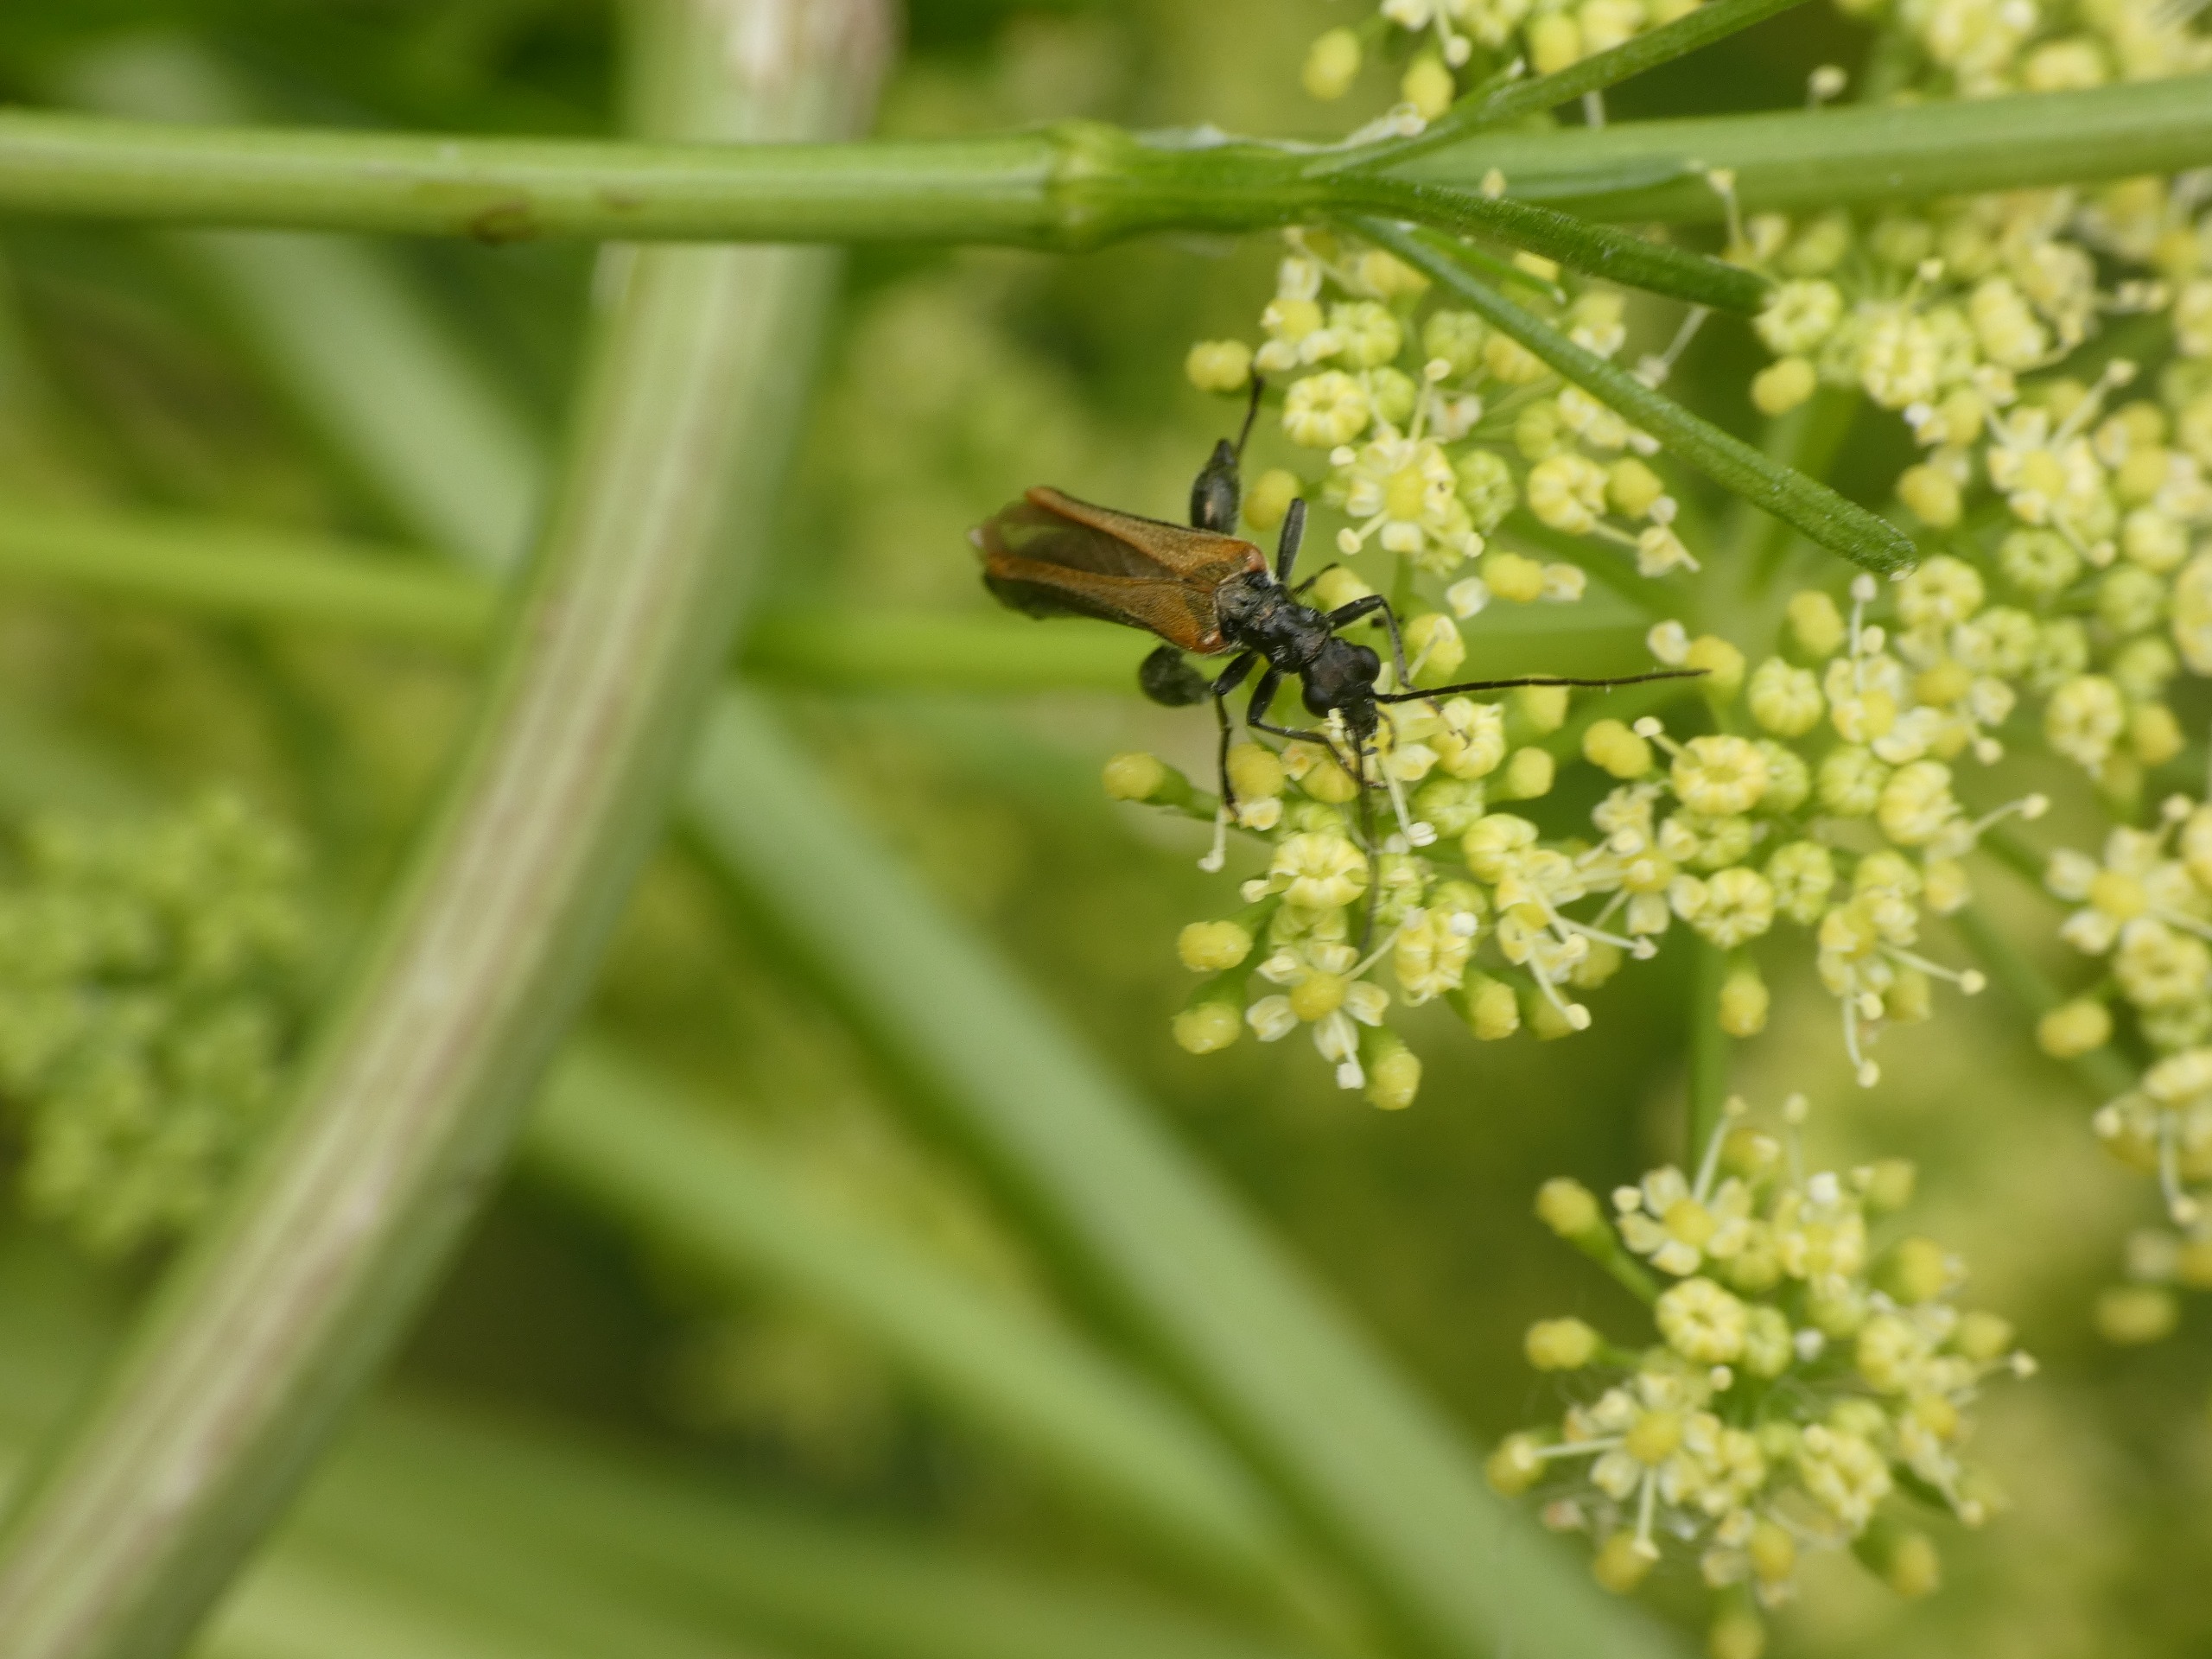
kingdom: Animalia
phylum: Arthropoda
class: Insecta
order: Coleoptera
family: Oedemeridae
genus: Oedemera
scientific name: Oedemera femorata
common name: Gulvinget solbille
